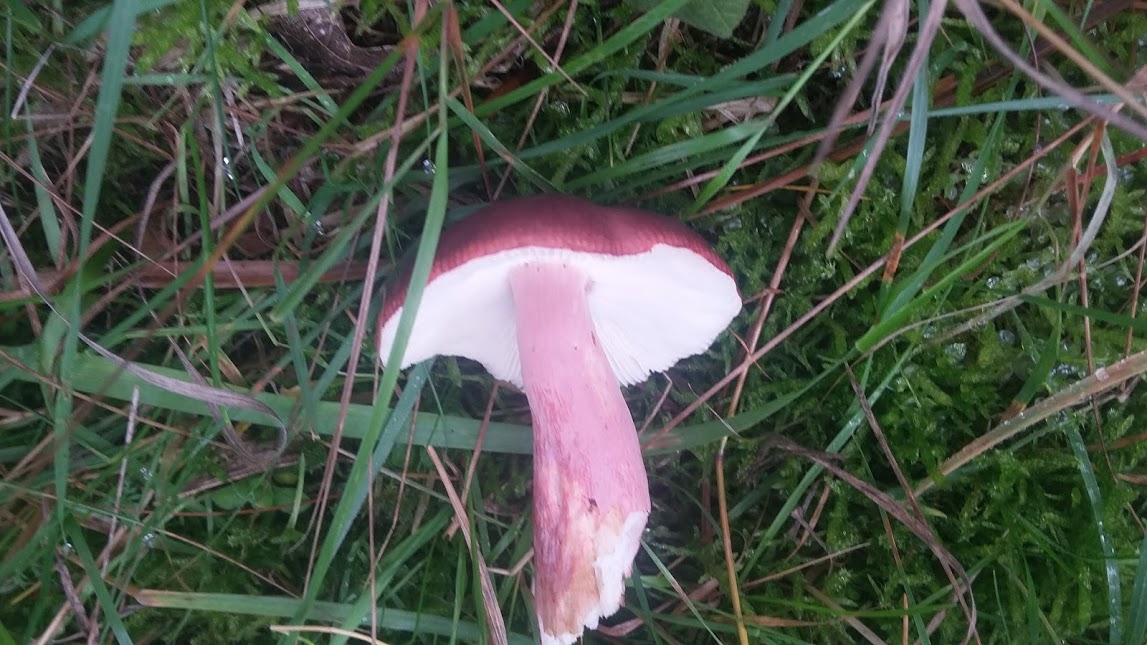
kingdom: Fungi
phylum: Basidiomycota
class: Agaricomycetes
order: Russulales
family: Russulaceae
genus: Russula
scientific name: Russula queletii
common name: Quélets skørhat
